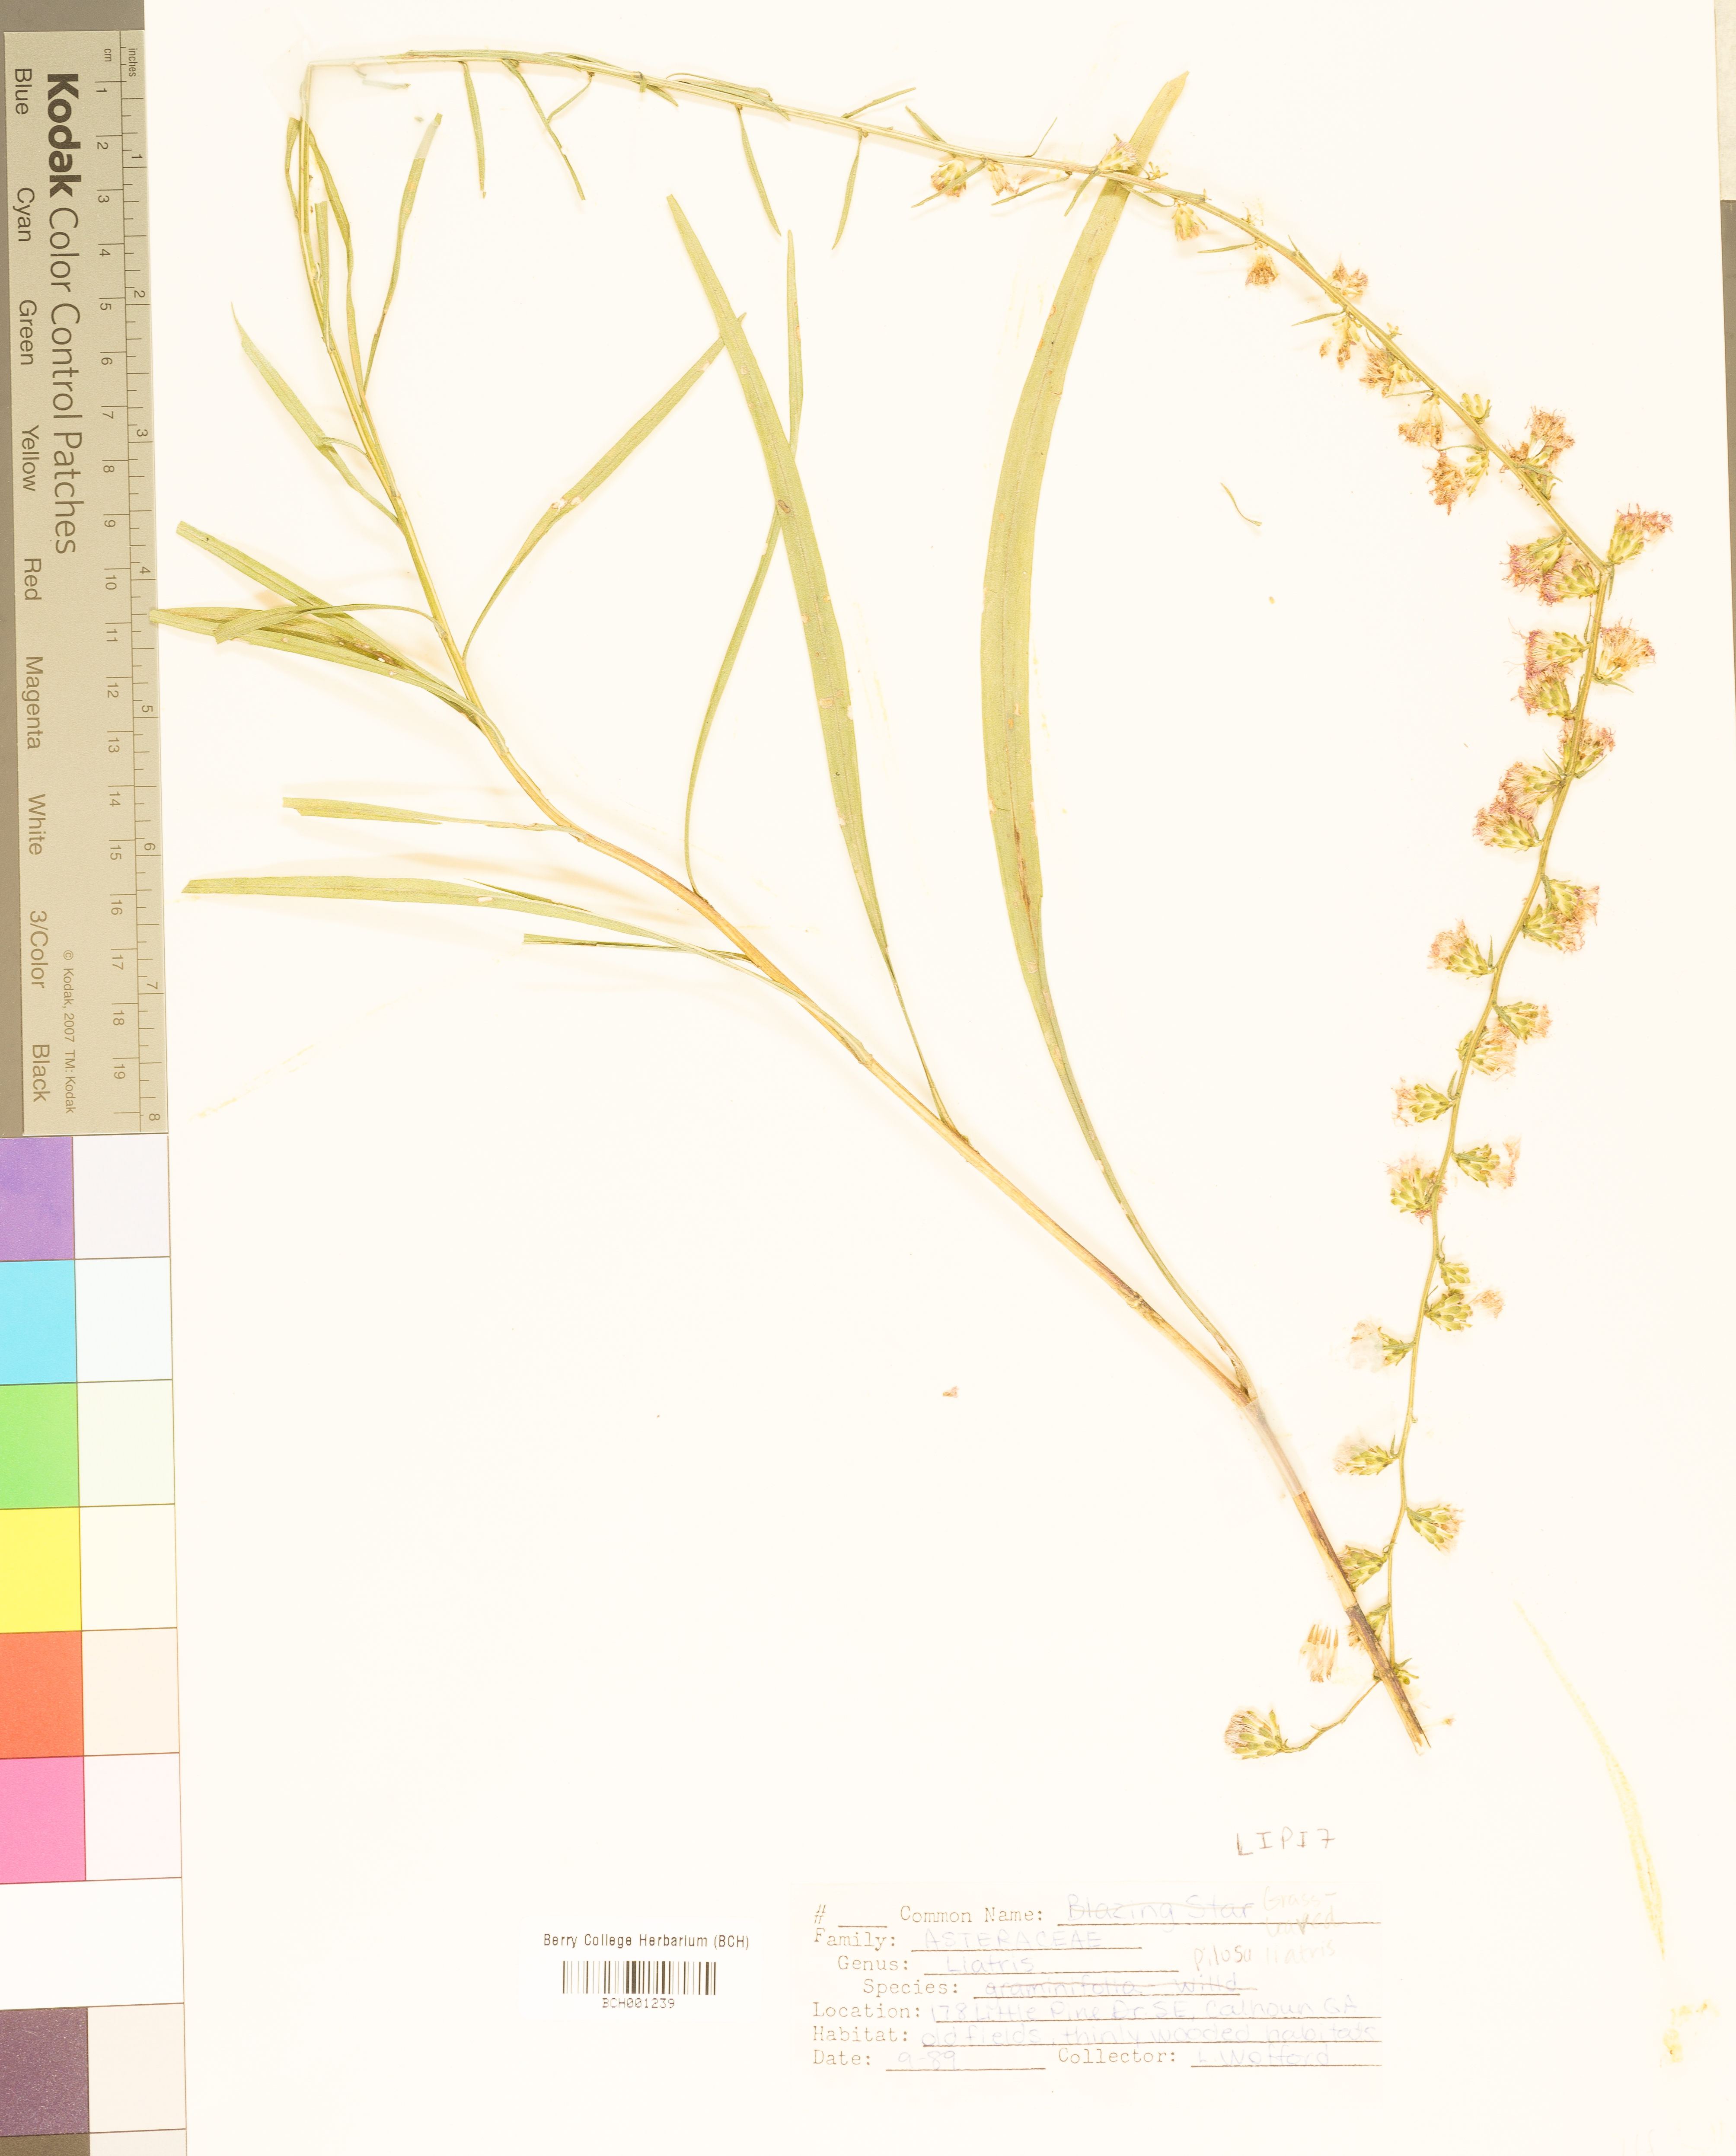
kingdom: Plantae
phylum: Tracheophyta
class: Magnoliopsida
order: Asterales
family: Asteraceae
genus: Liatris
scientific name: Liatris pilosa
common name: Grass-leaf gayfeather
